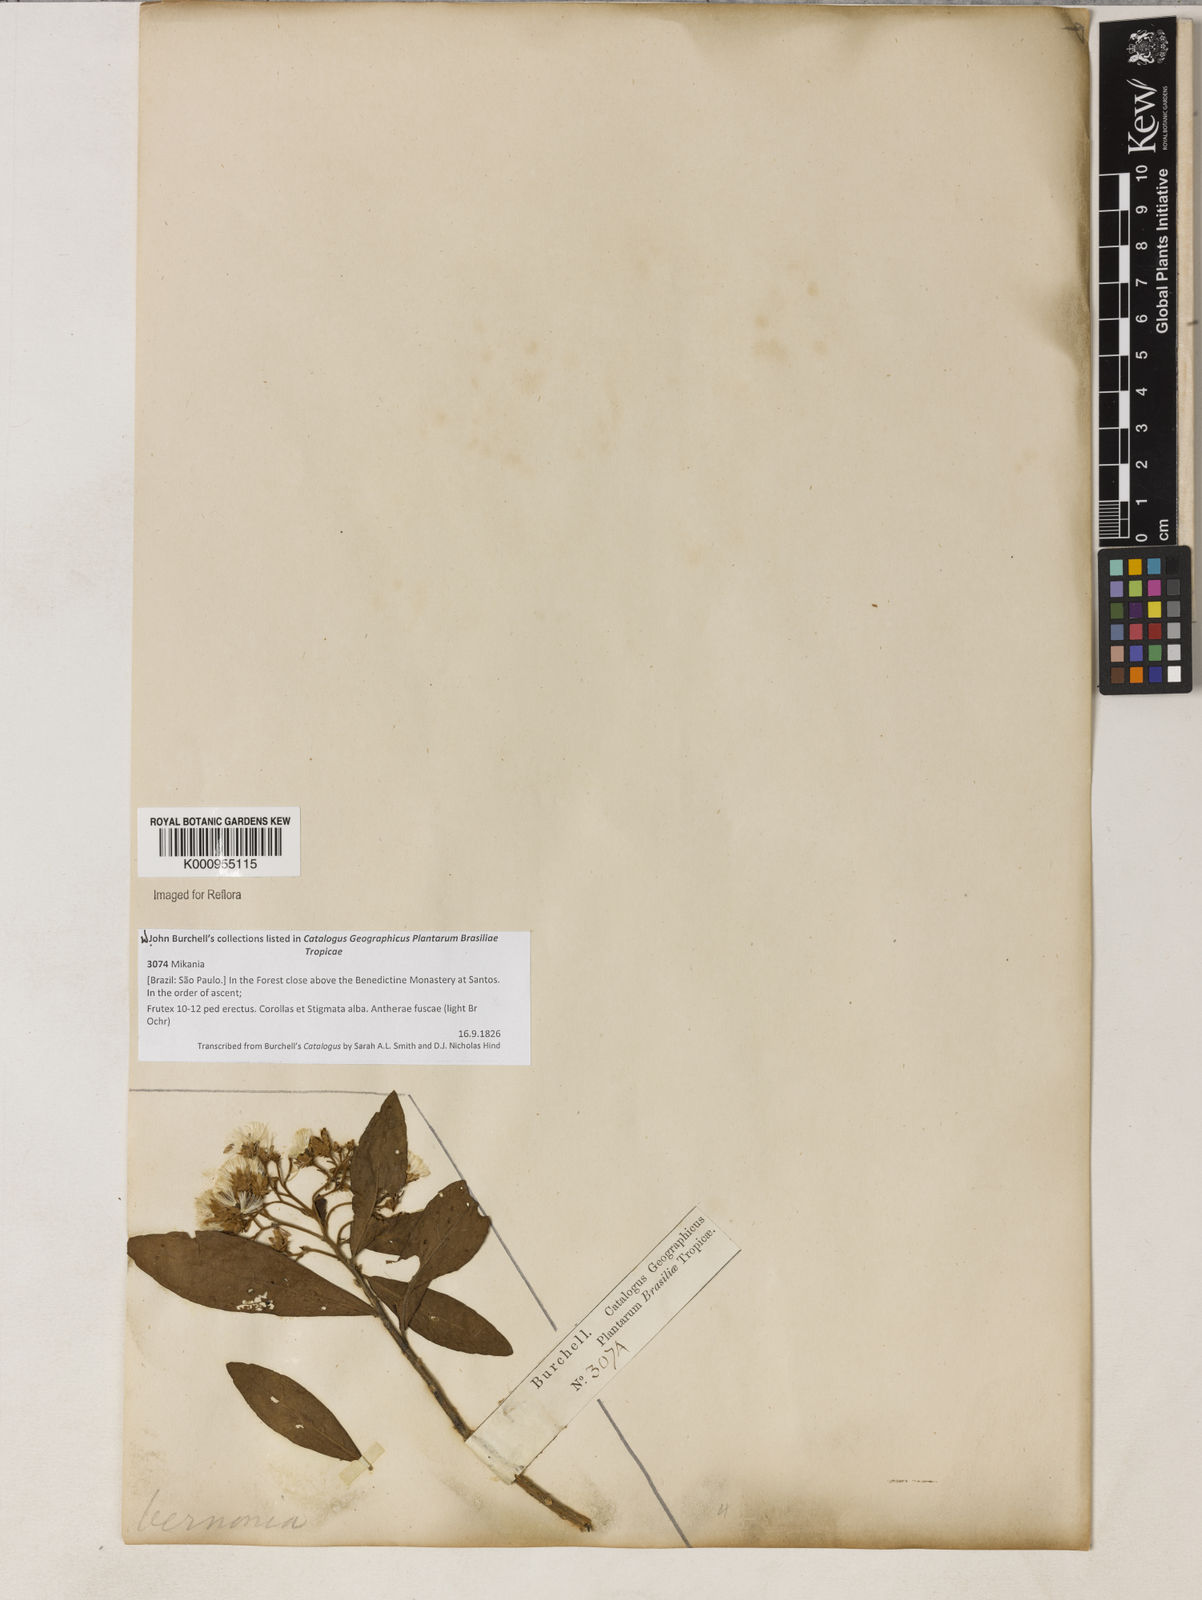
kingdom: Plantae
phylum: Tracheophyta
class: Magnoliopsida
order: Asterales
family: Asteraceae
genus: Vernonanthura
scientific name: Vernonanthura puberula
